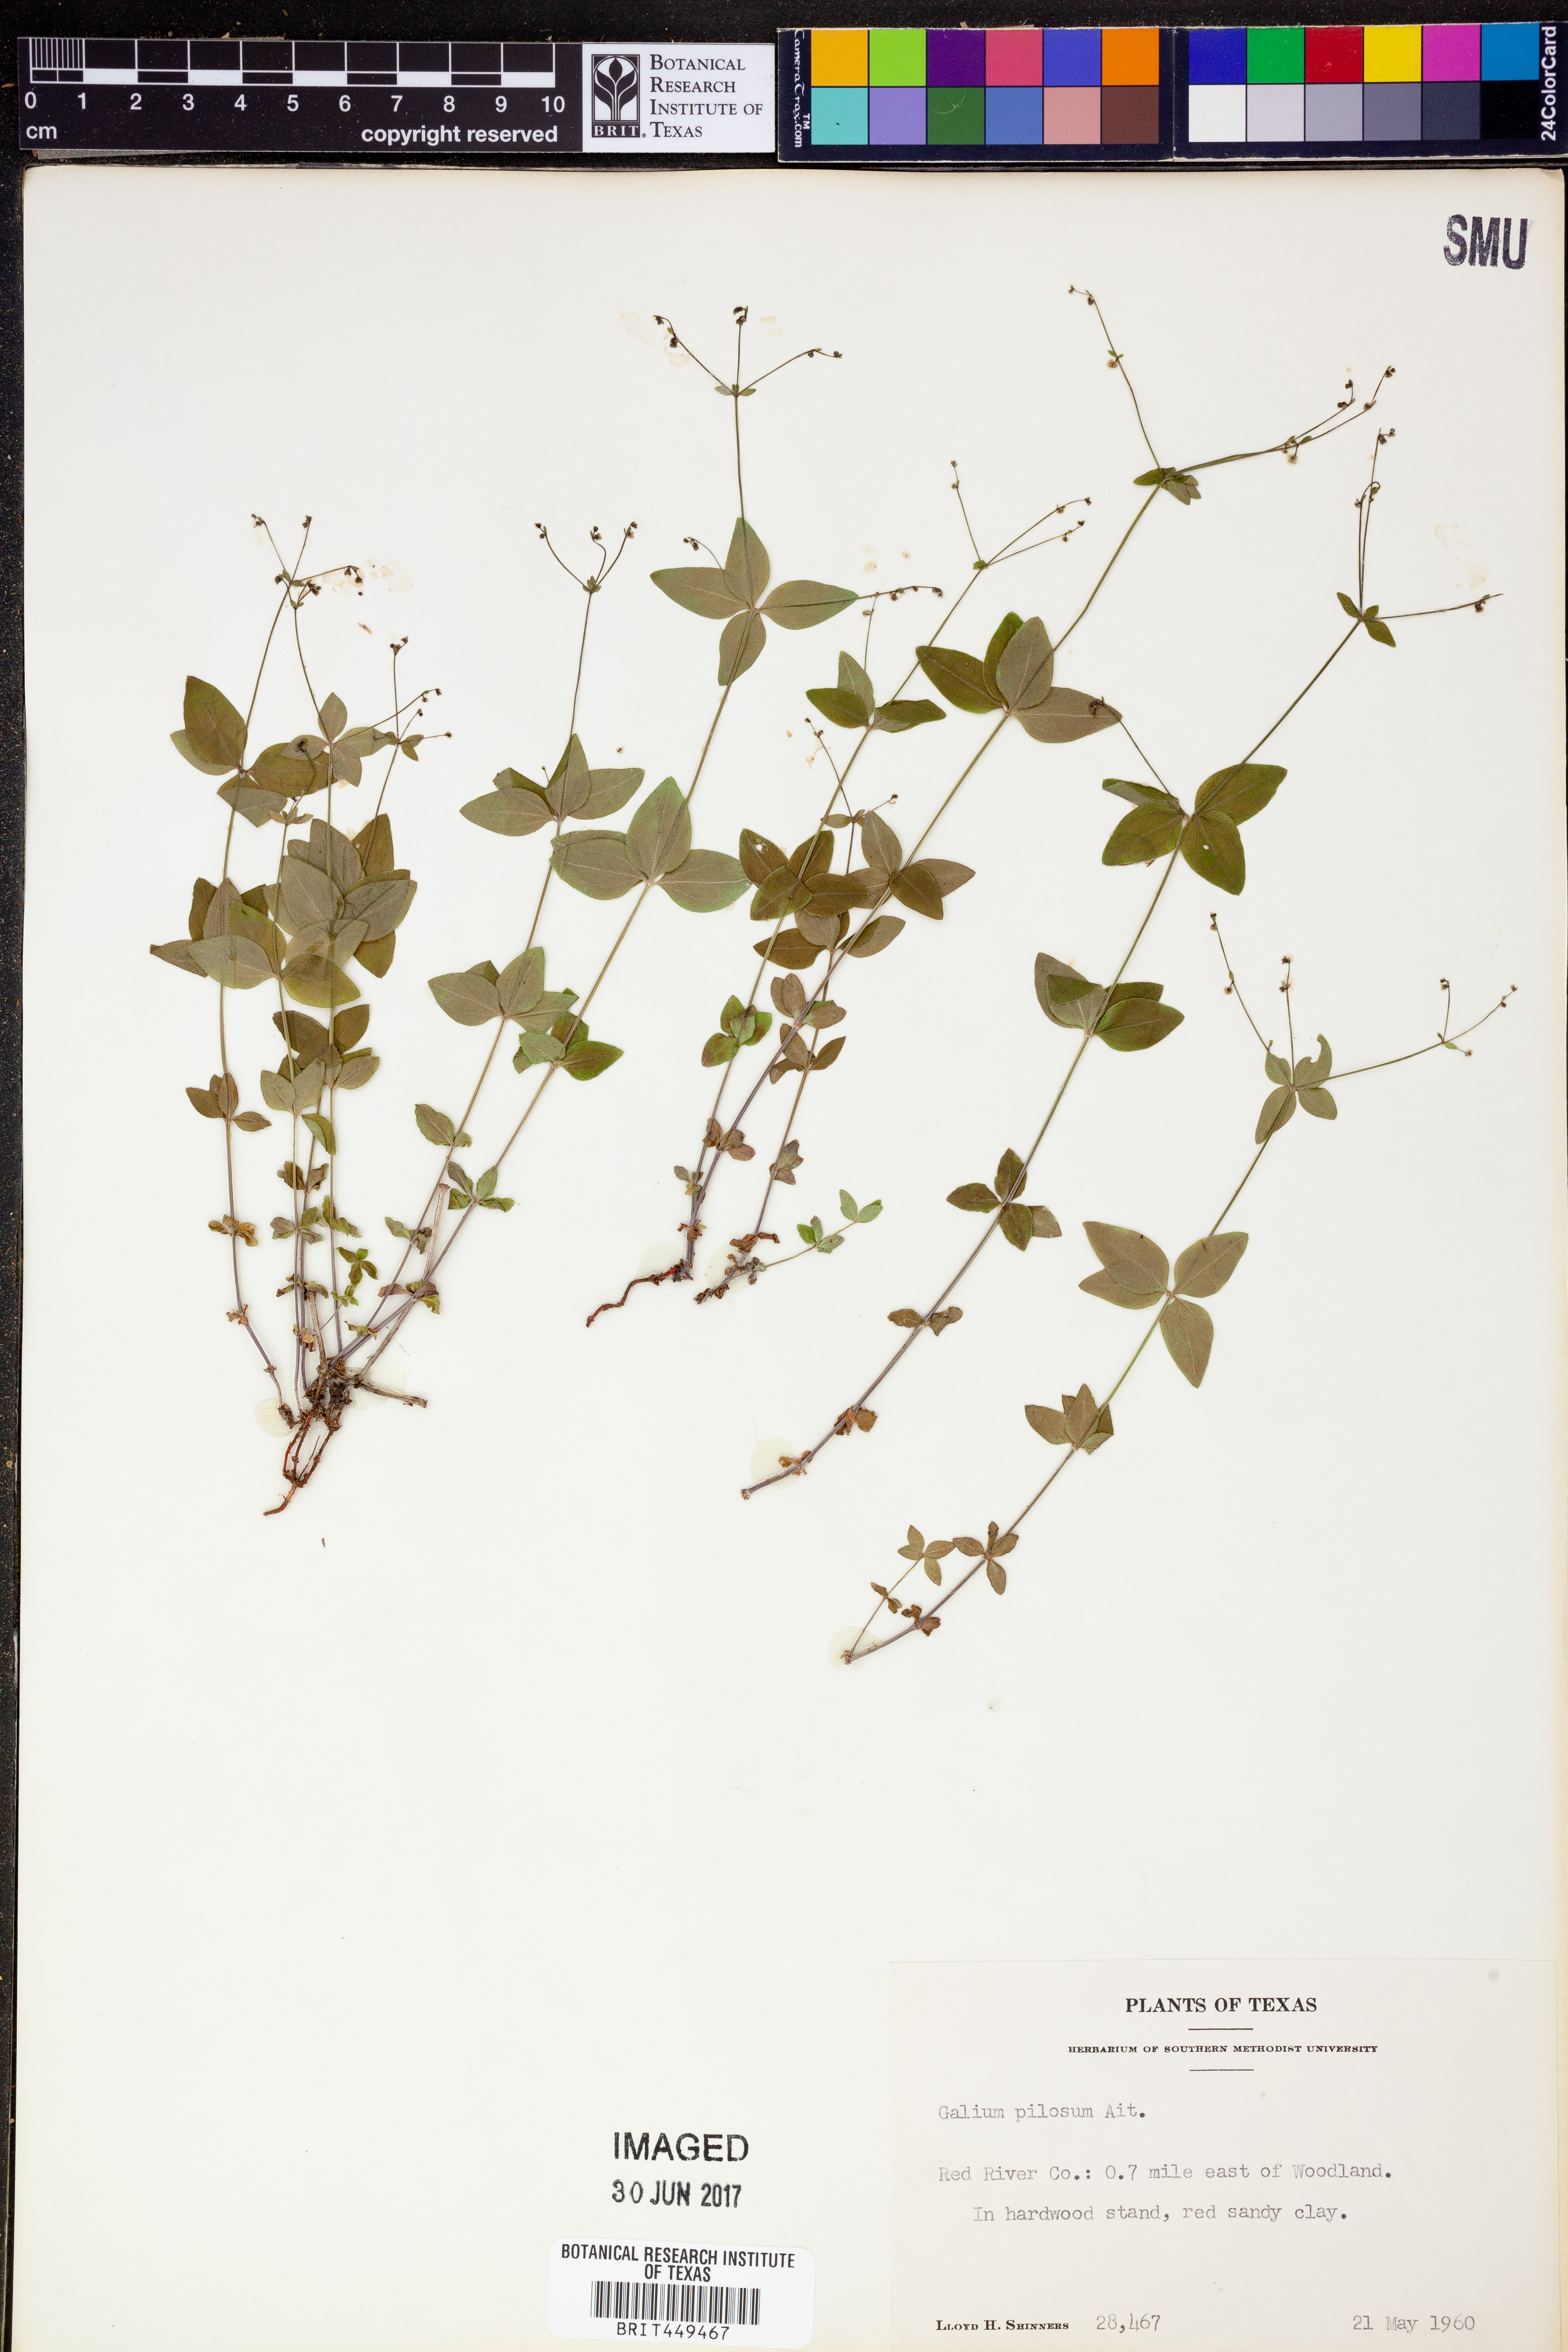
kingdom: Plantae
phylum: Tracheophyta
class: Magnoliopsida
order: Gentianales
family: Rubiaceae
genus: Galium
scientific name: Galium pilosum
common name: Hairy bedstraw
